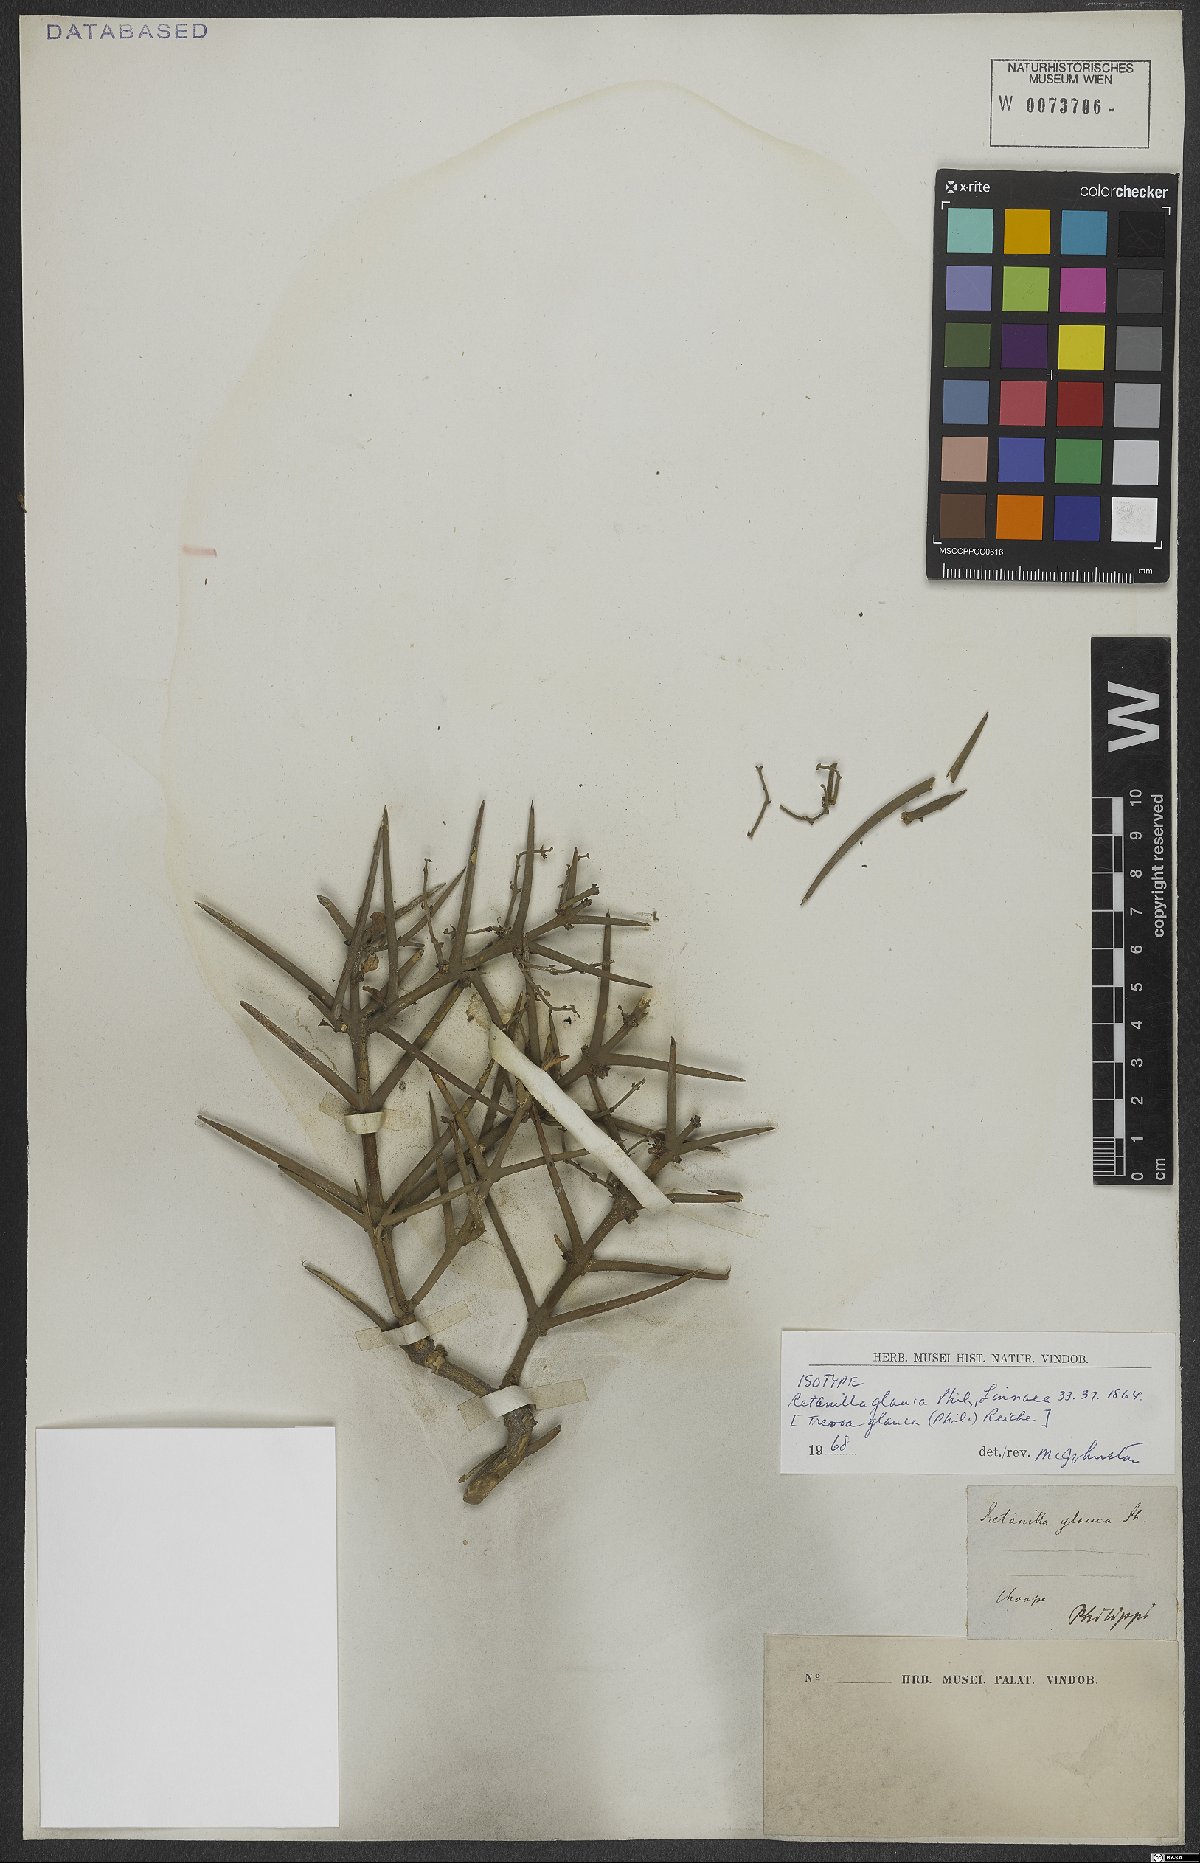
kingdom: Plantae
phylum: Tracheophyta
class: Magnoliopsida
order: Rosales
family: Rhamnaceae
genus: Trevoa
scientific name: Trevoa quinquenervia
